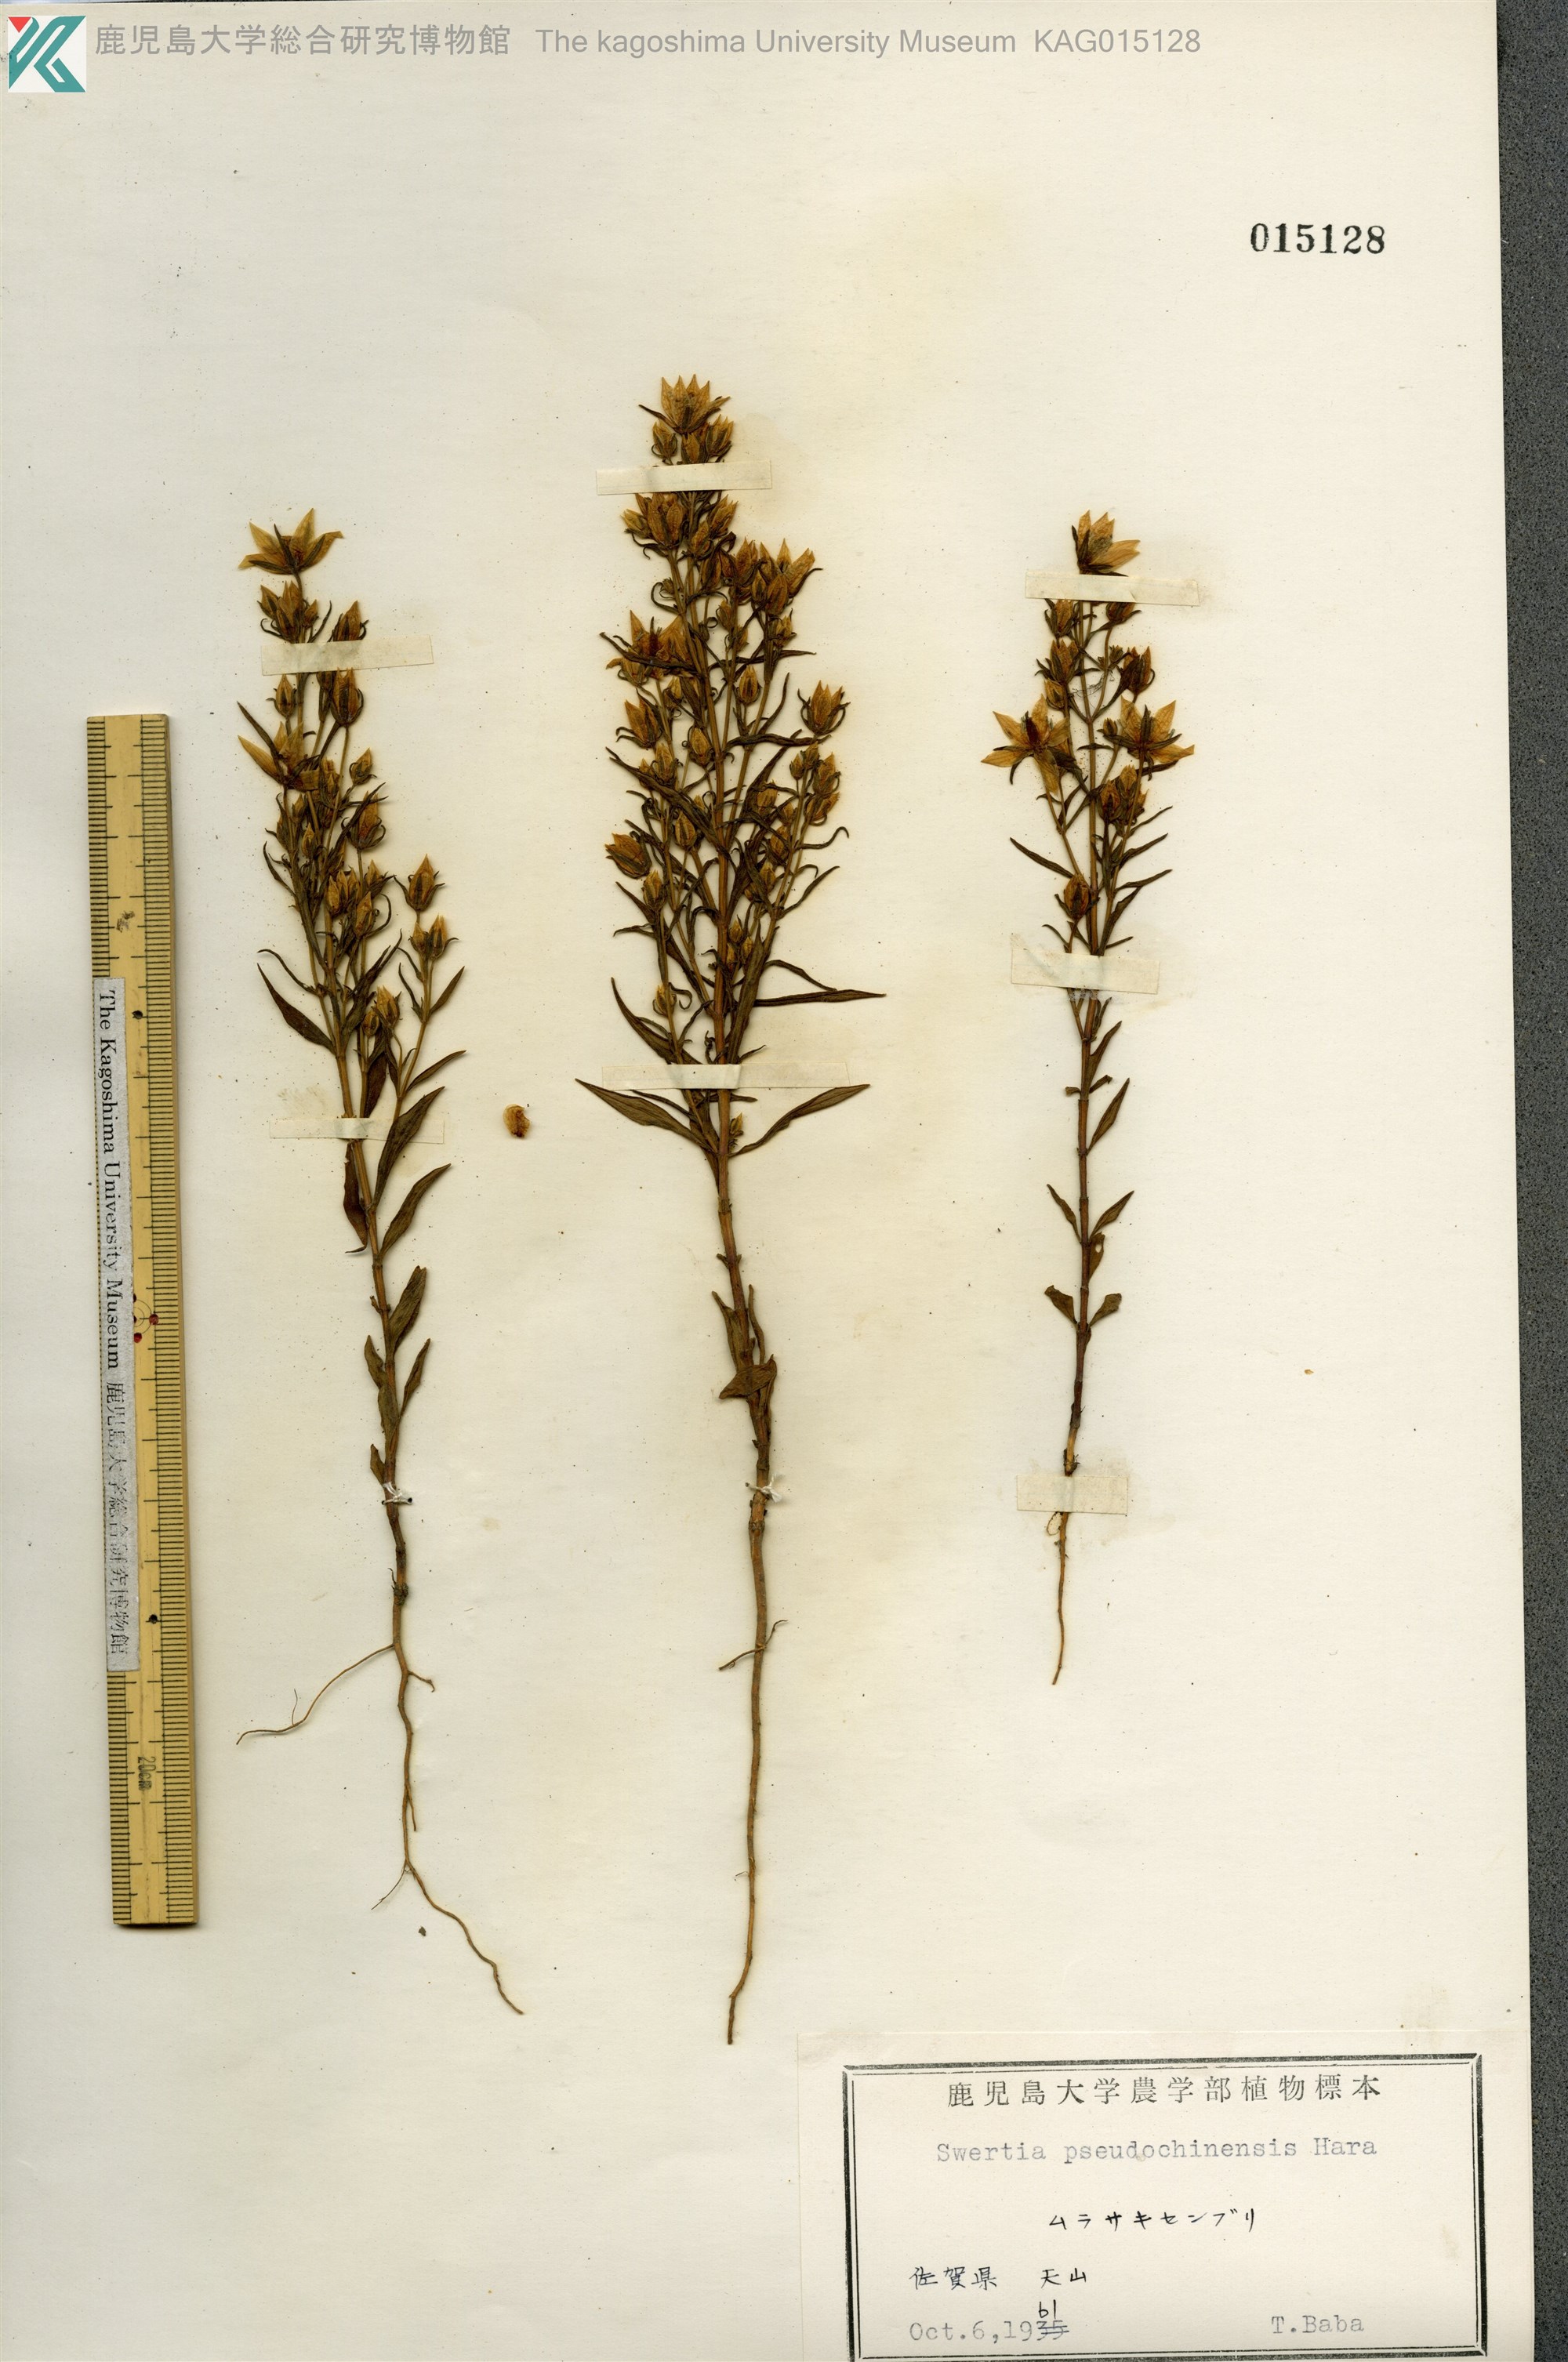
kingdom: Plantae
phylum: Tracheophyta
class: Magnoliopsida
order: Gentianales
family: Gentianaceae
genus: Swertia
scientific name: Swertia pseudochinensis
